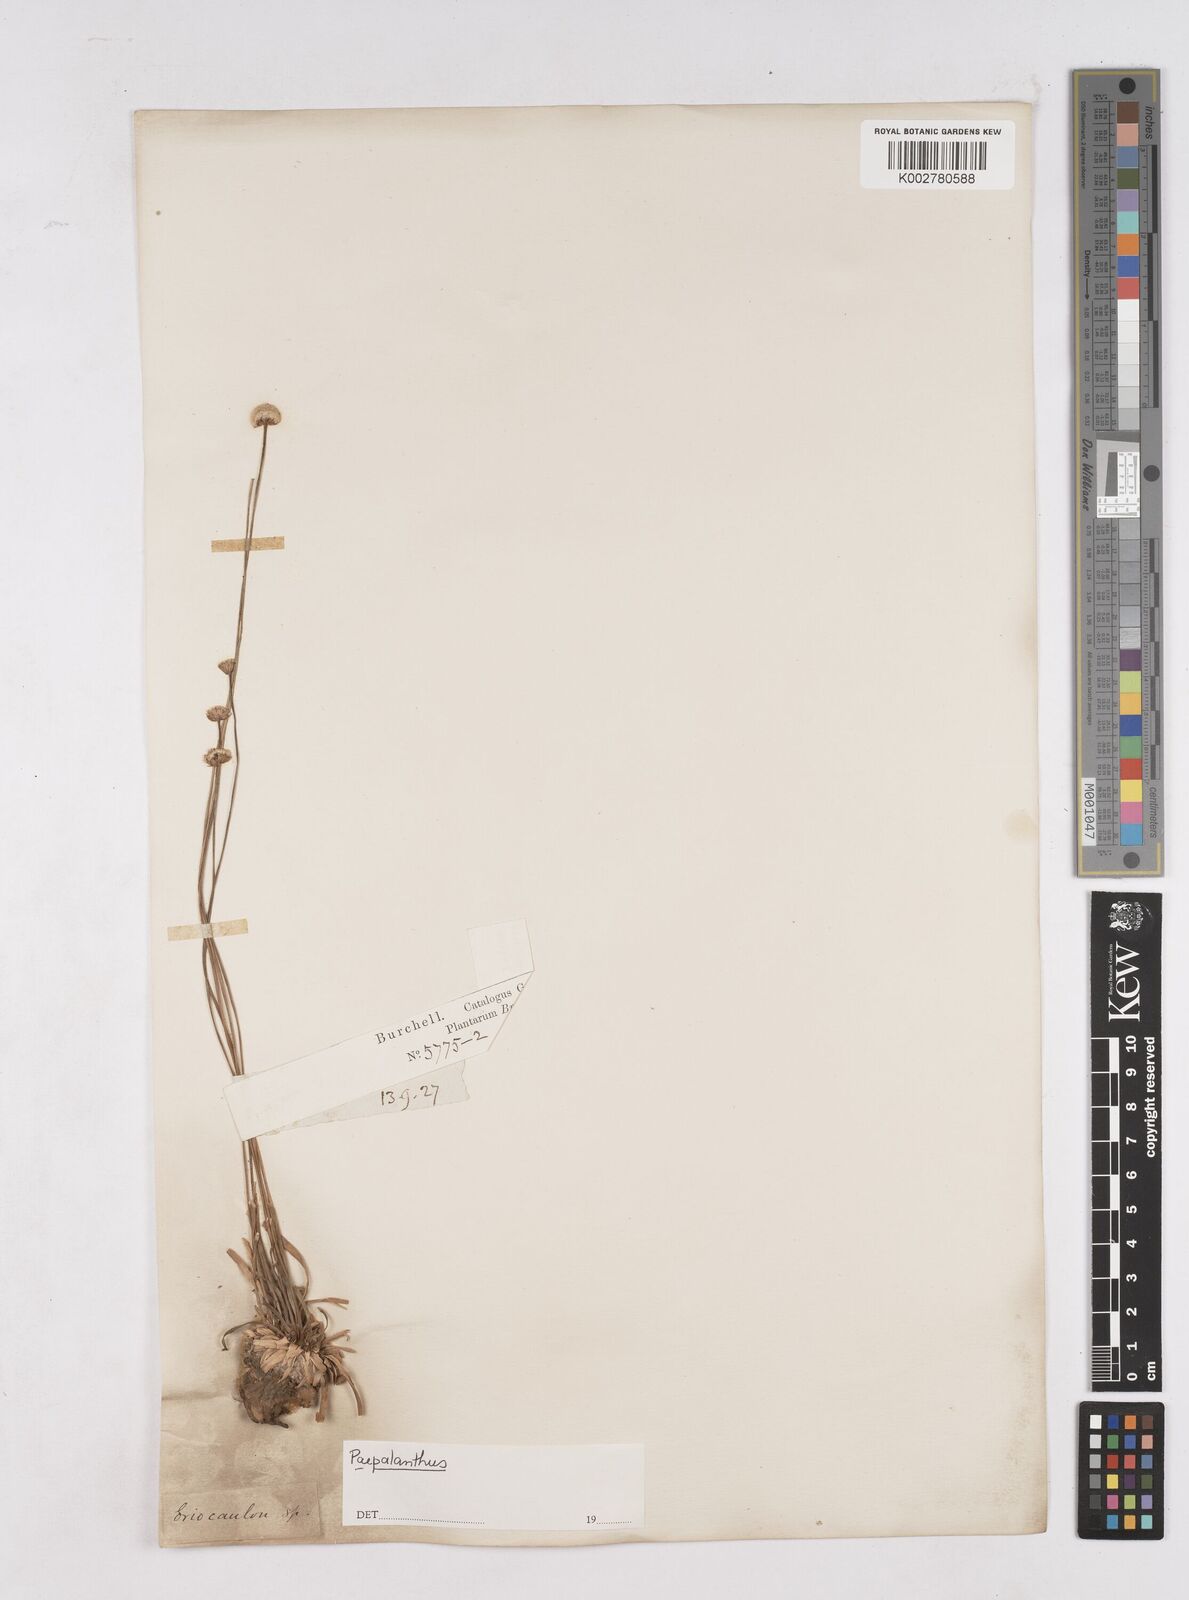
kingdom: Plantae
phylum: Tracheophyta
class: Liliopsida
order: Poales
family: Eriocaulaceae
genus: Paepalanthus
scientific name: Paepalanthus
